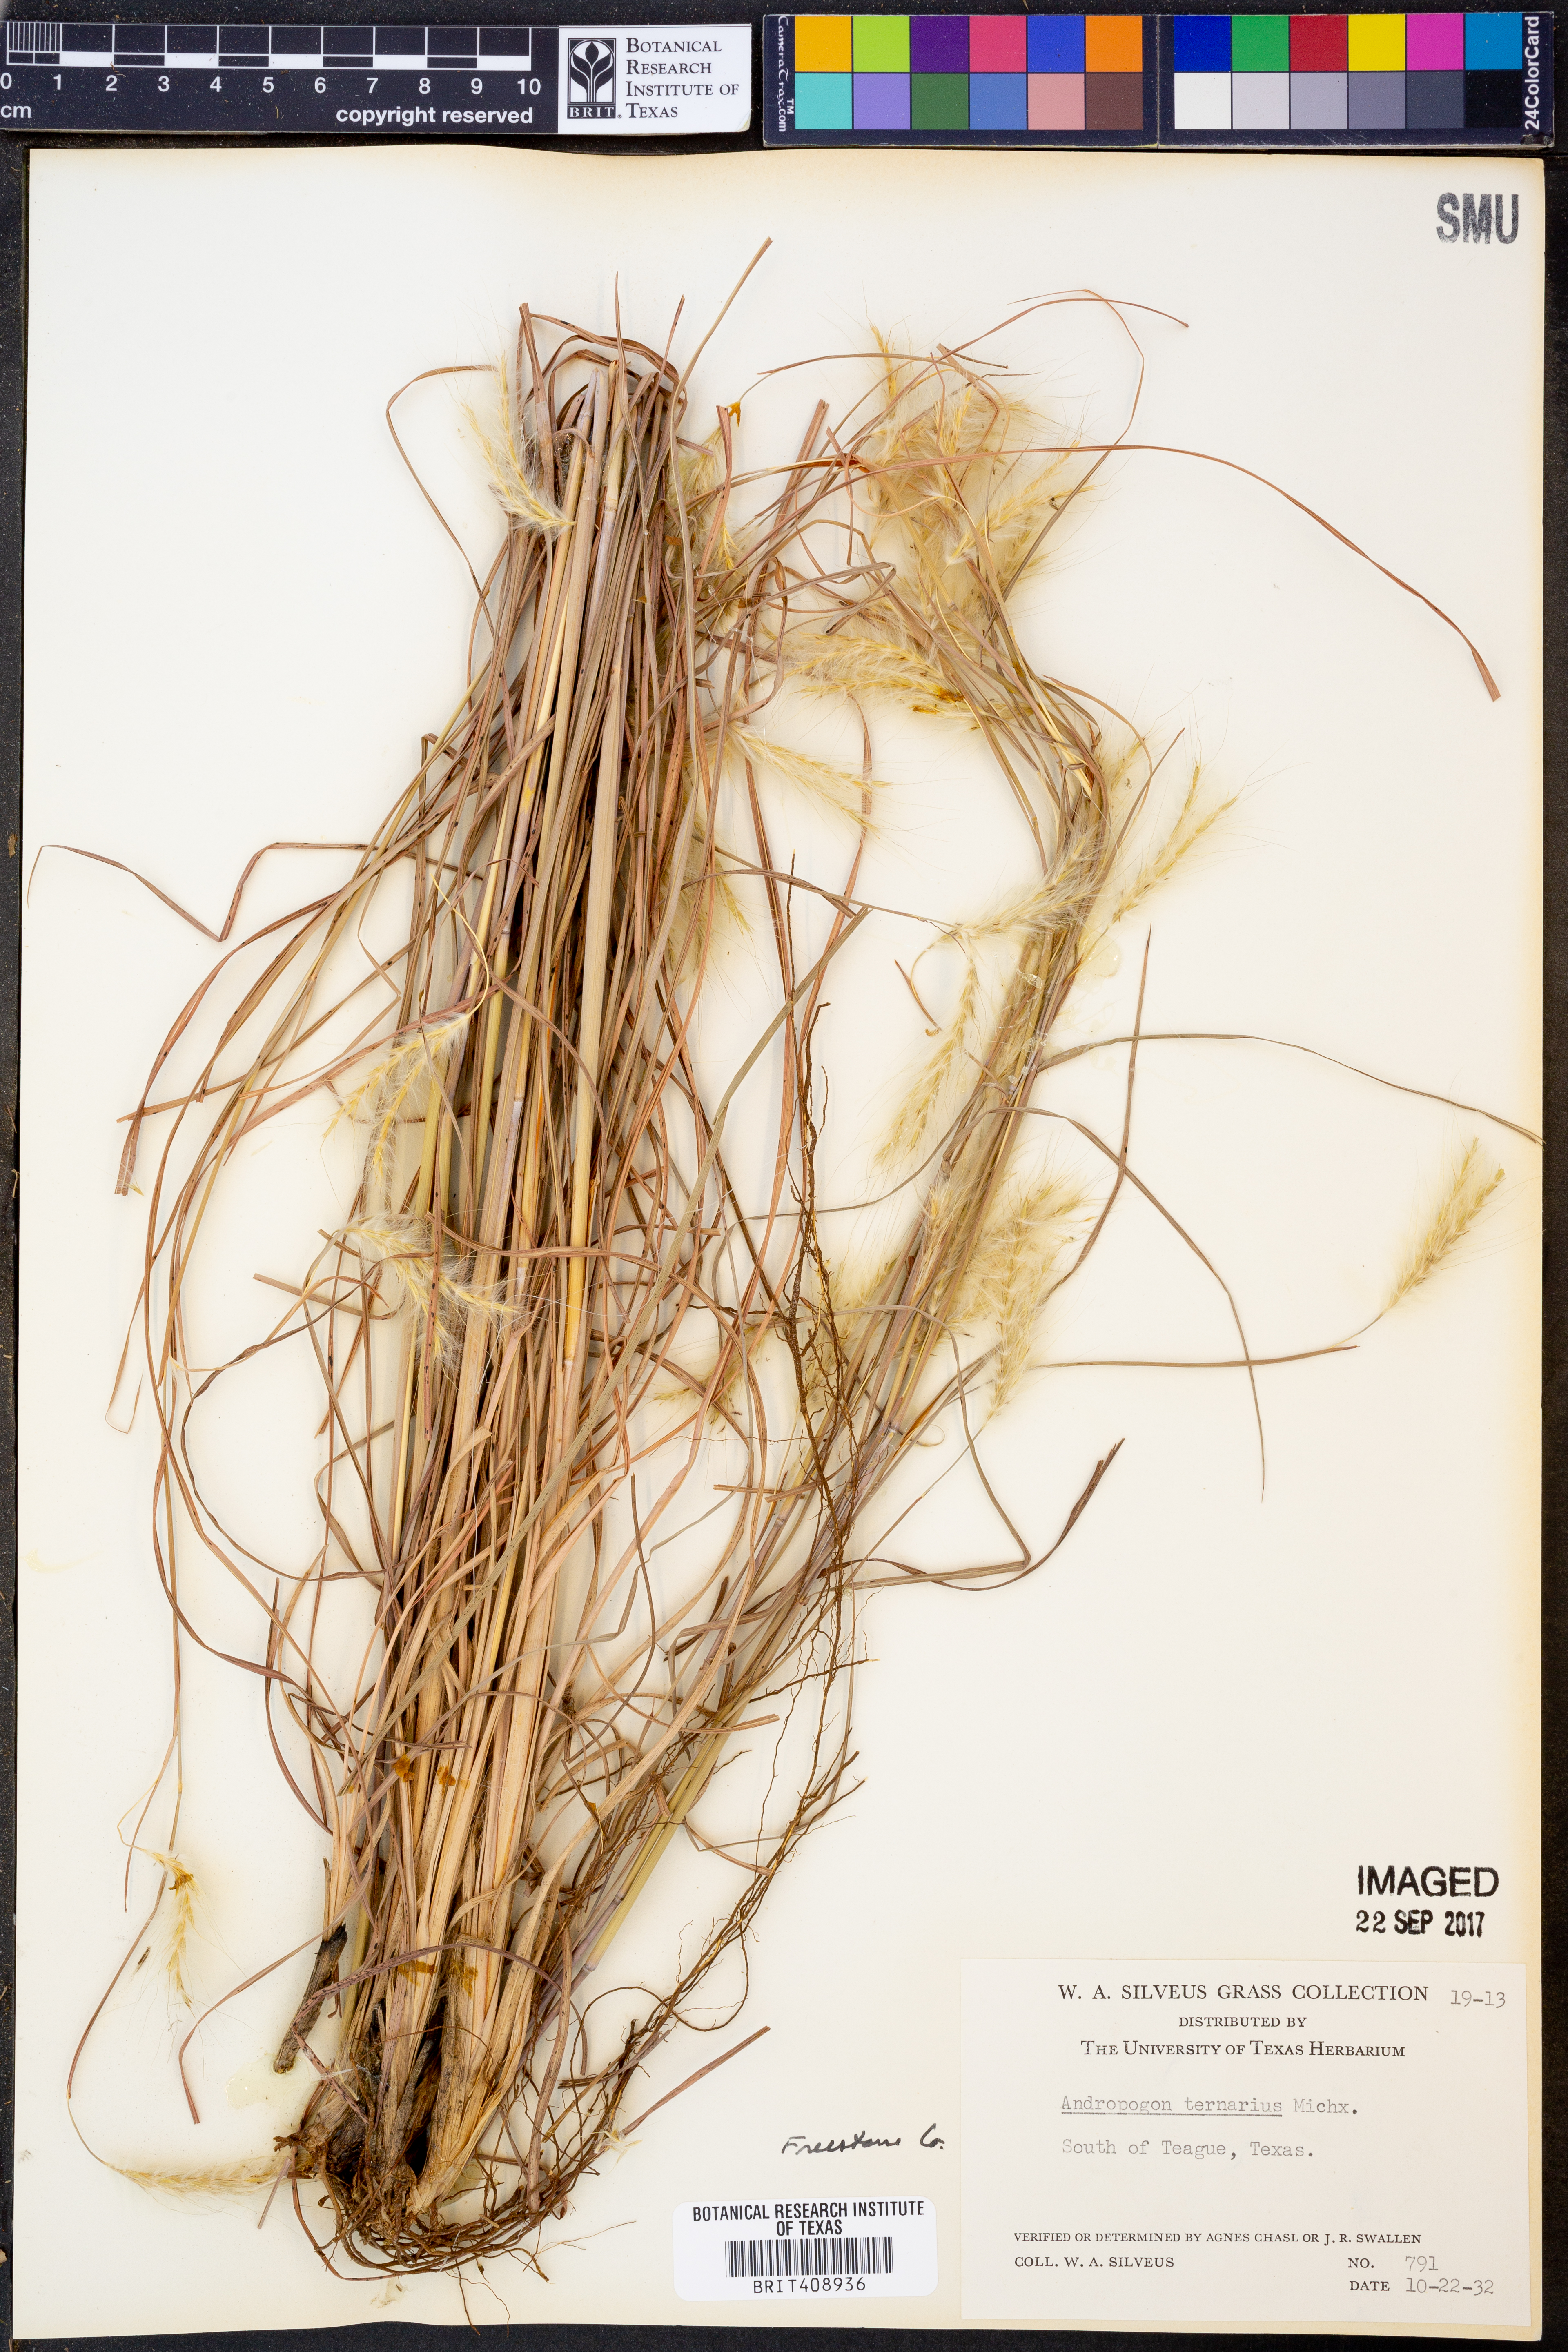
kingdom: Plantae
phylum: Tracheophyta
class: Liliopsida
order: Poales
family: Poaceae
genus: Andropogon
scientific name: Andropogon ternarius
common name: Split bluestem
